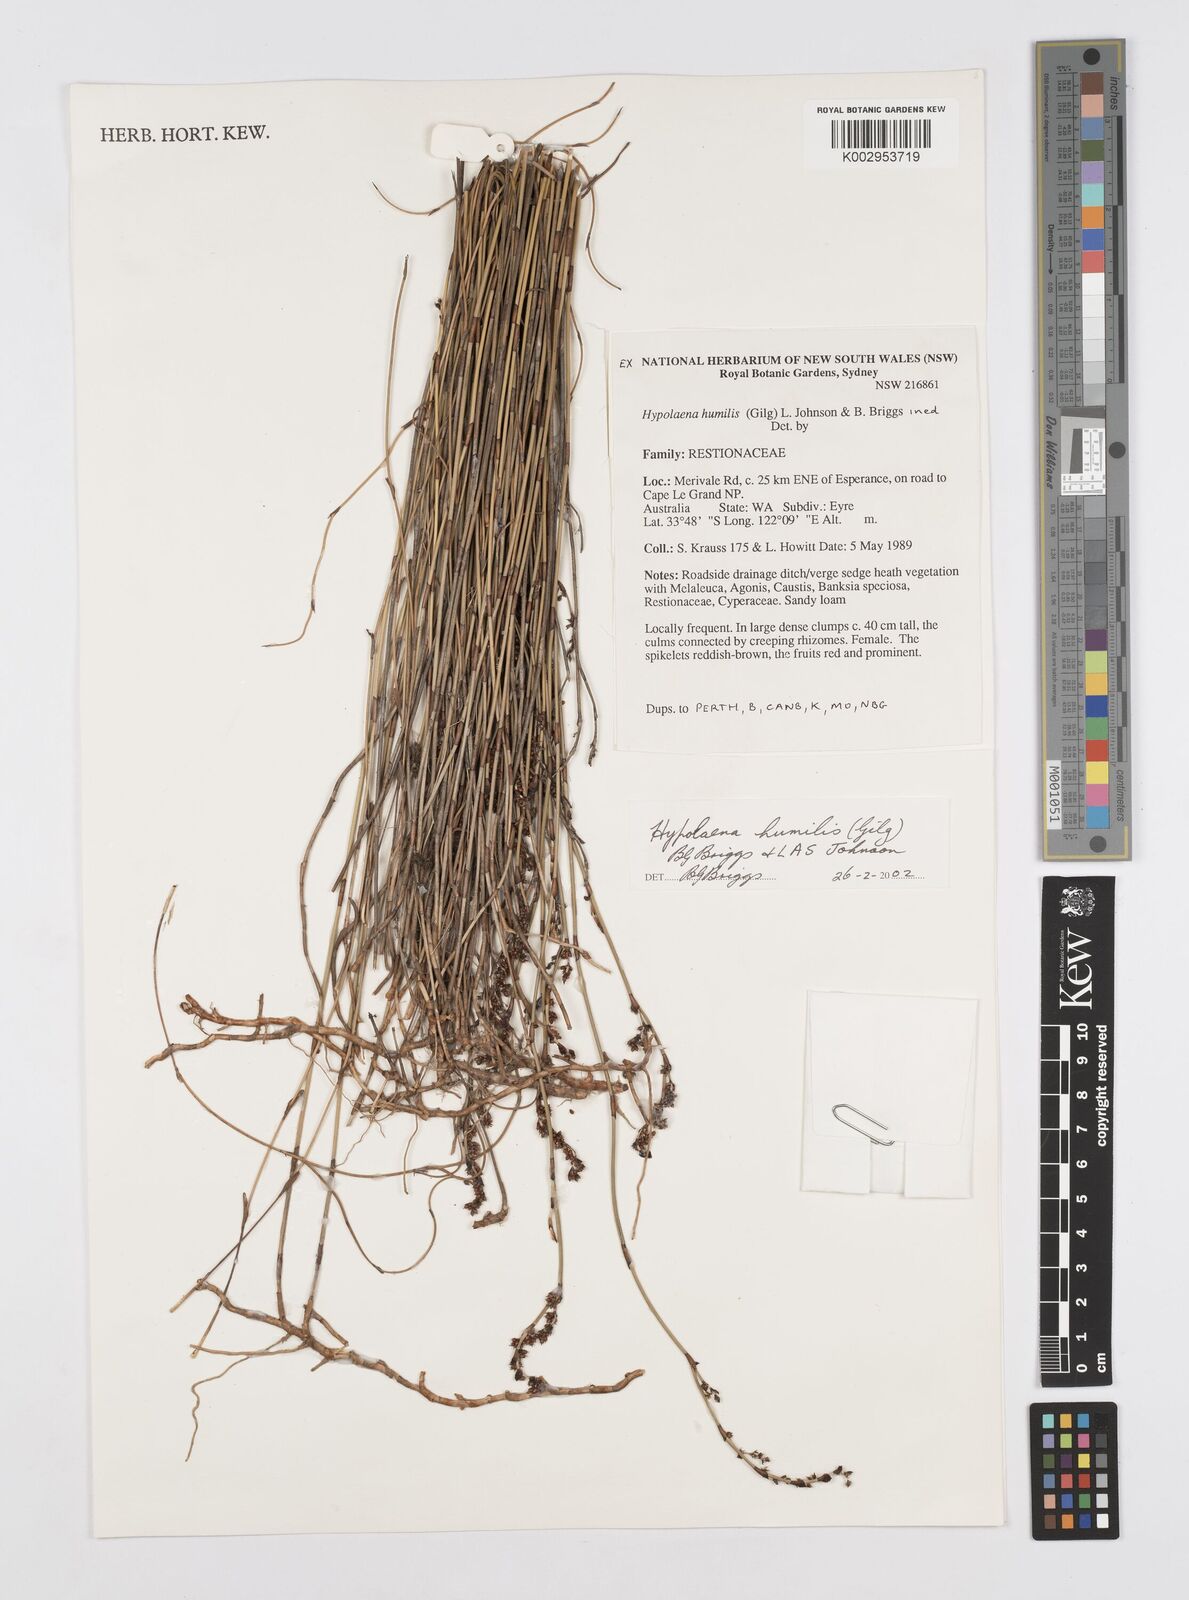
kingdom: Plantae
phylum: Tracheophyta
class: Liliopsida
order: Poales
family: Restionaceae
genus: Hypolaena
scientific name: Hypolaena humilis
